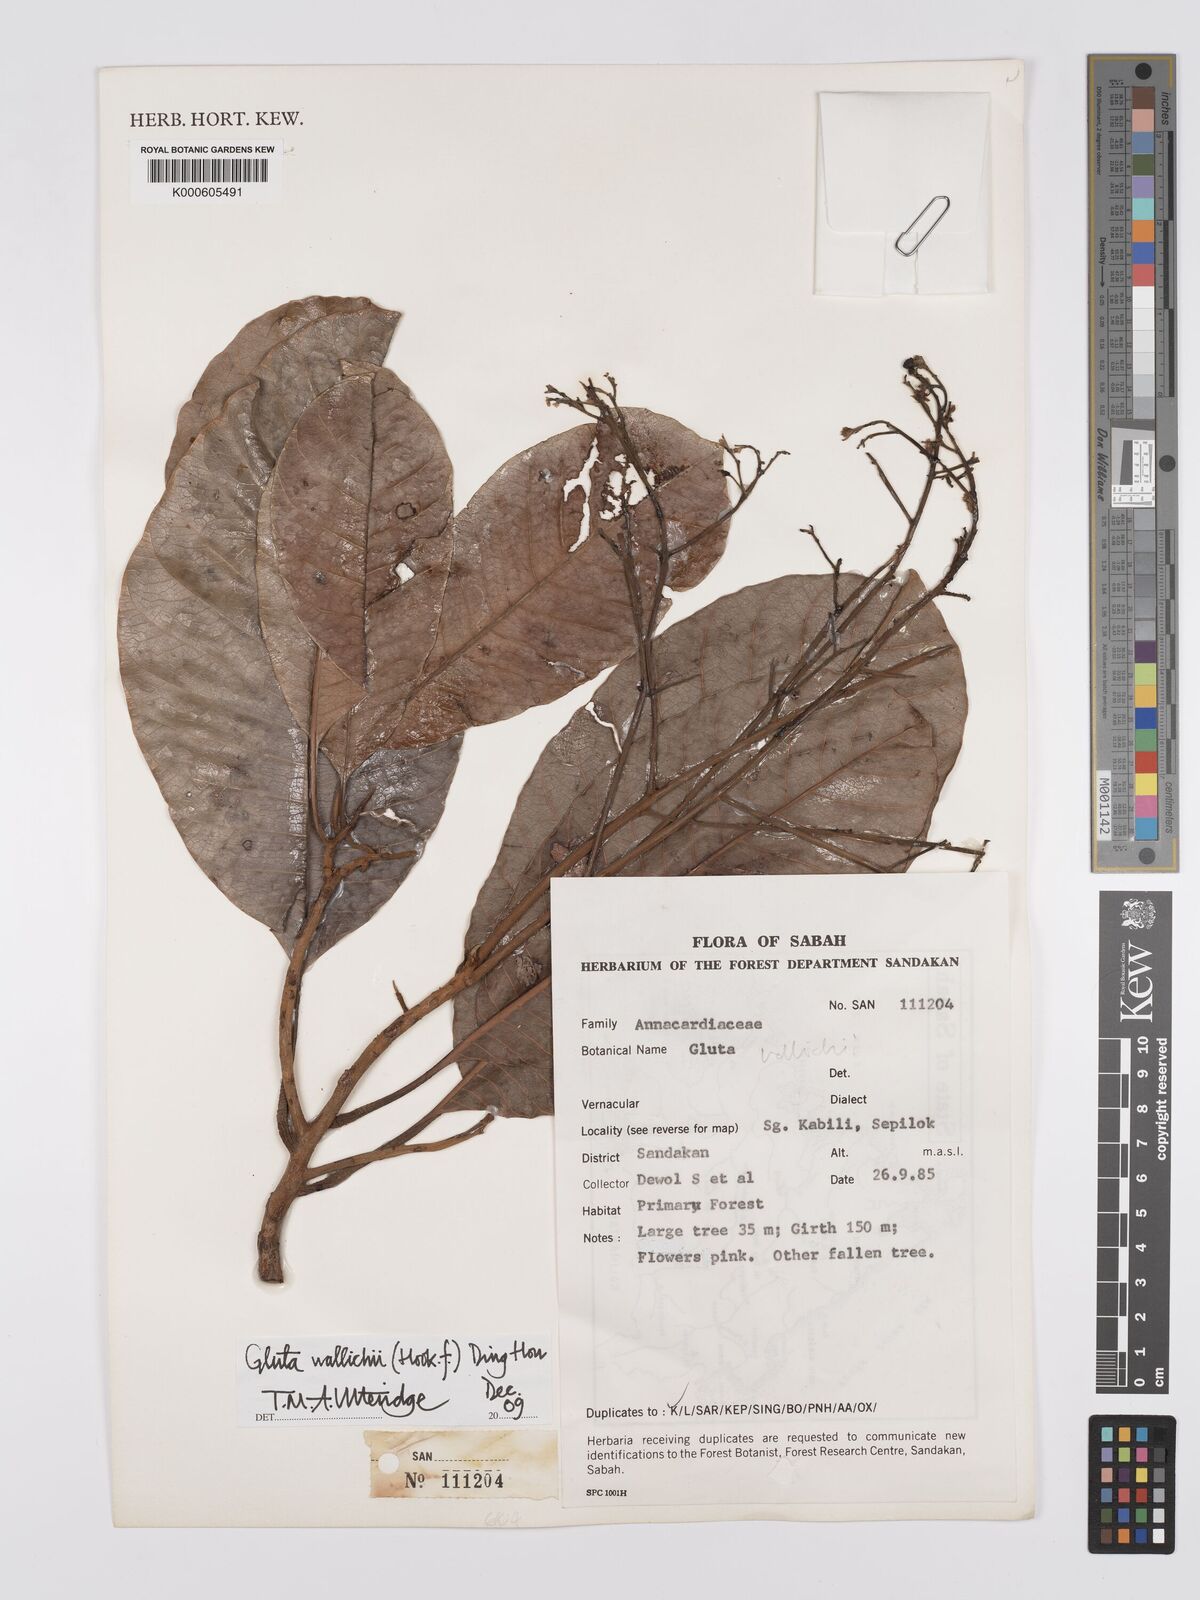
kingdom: Plantae
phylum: Tracheophyta
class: Magnoliopsida
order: Sapindales
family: Anacardiaceae
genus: Gluta
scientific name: Gluta wallichii
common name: Common rengas
